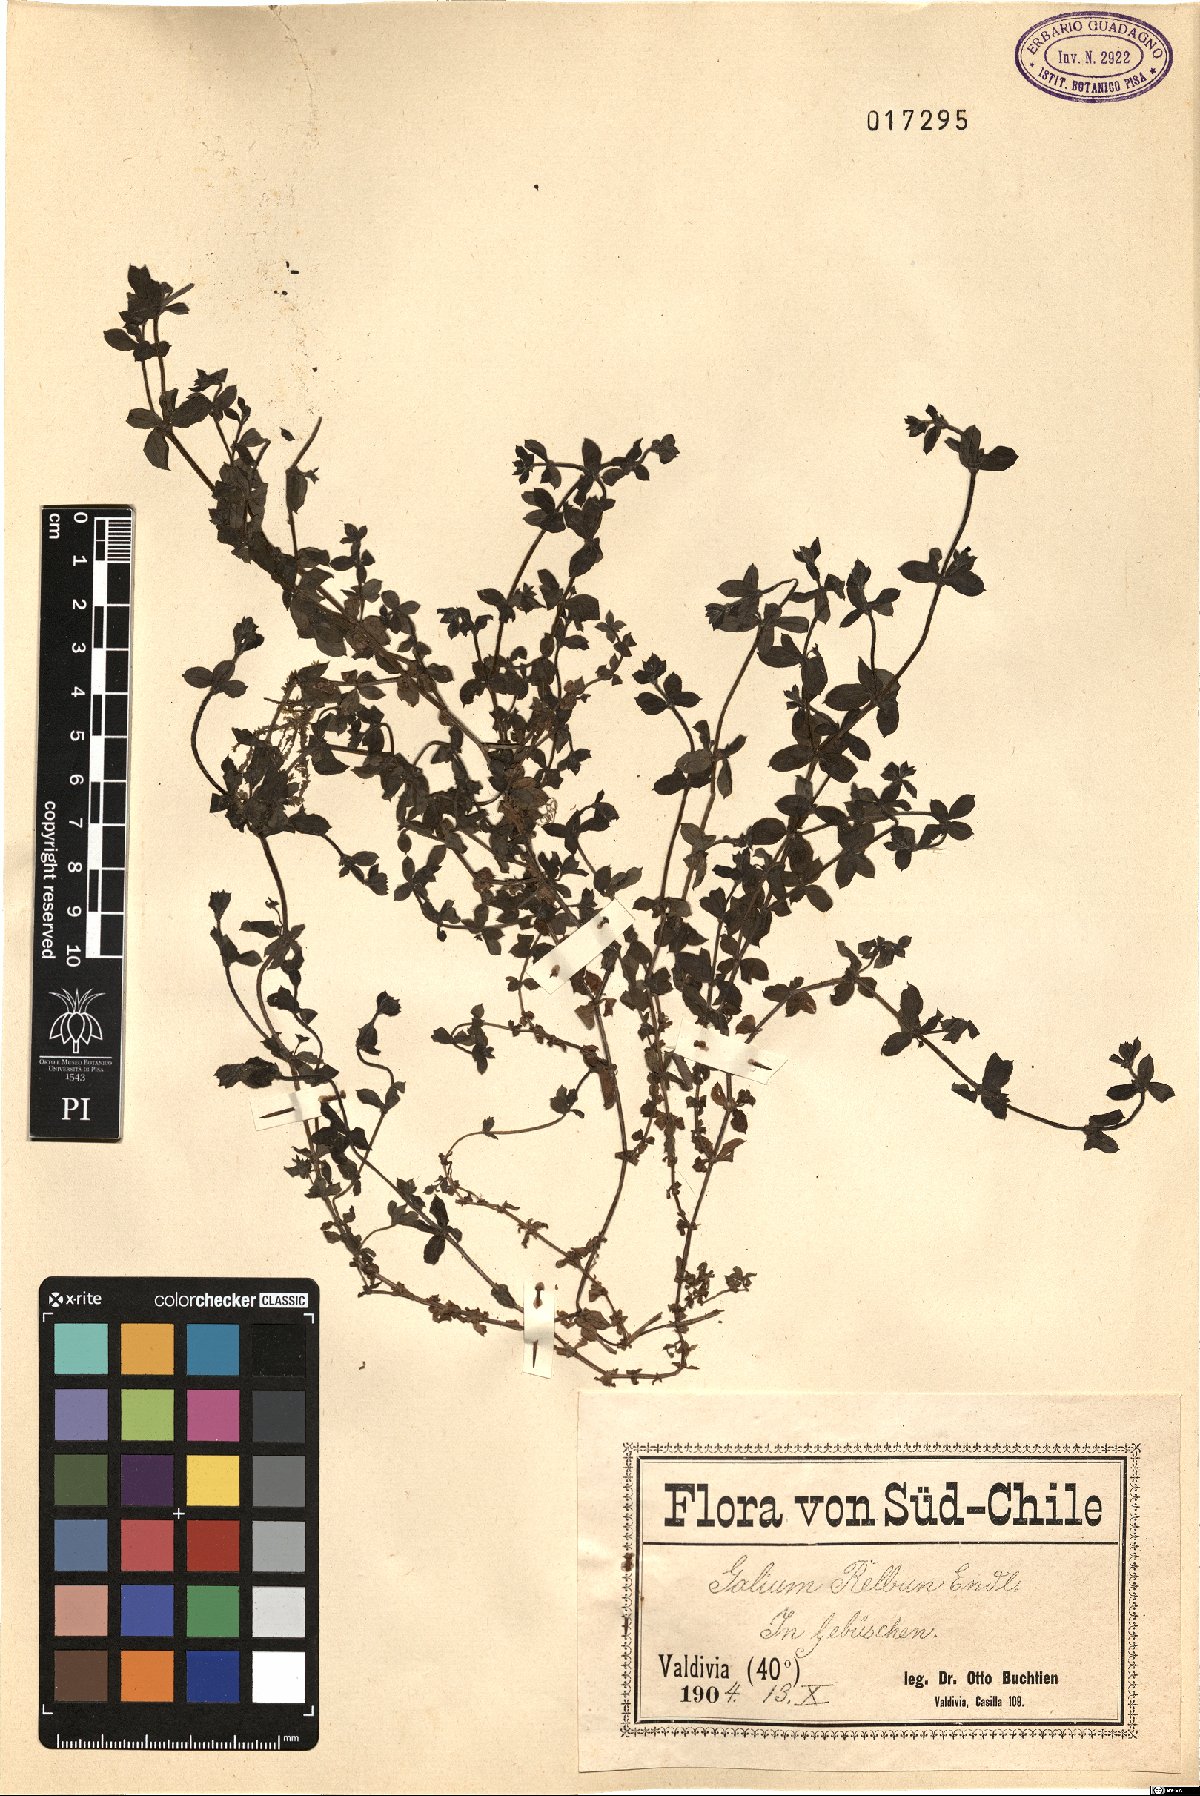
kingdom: Plantae
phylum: Tracheophyta
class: Magnoliopsida
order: Gentianales
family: Rubiaceae
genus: Galium
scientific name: Galium hypocarpium
